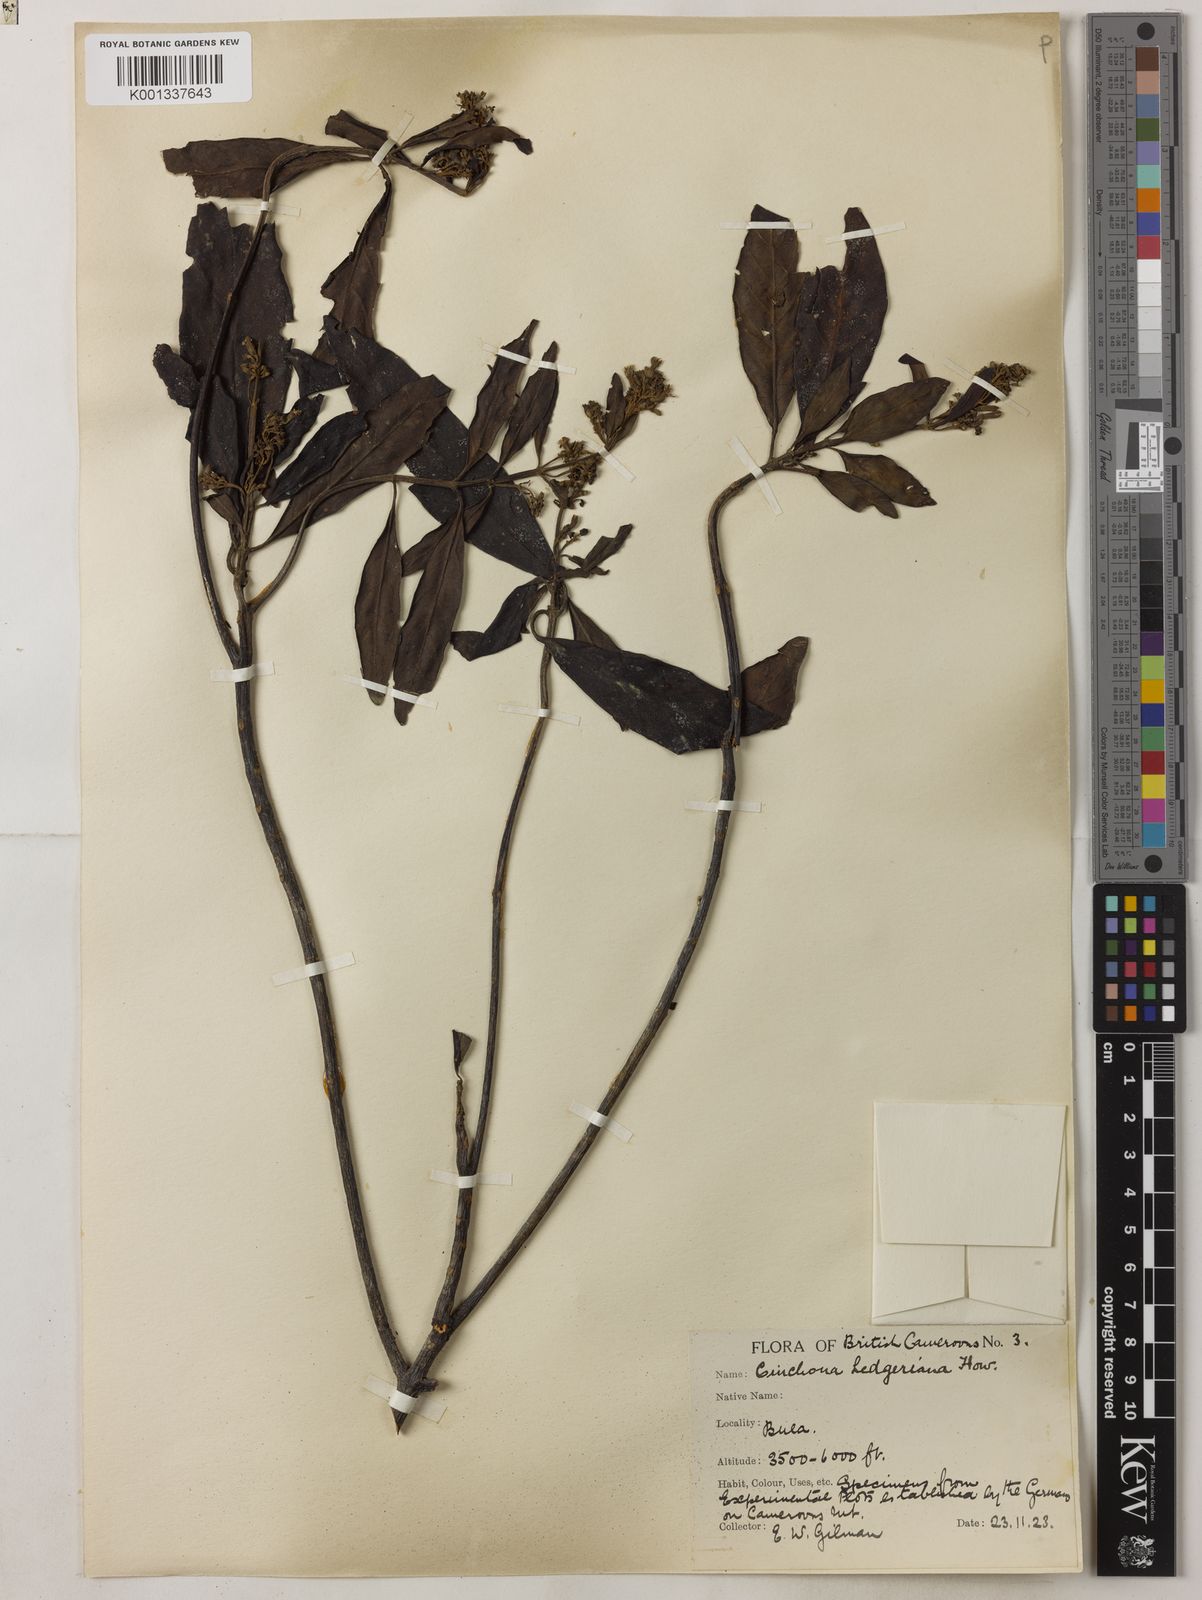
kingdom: Plantae
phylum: Tracheophyta
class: Magnoliopsida
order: Gentianales
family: Rubiaceae
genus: Cinchona
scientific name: Cinchona calisaya
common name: Ledgerbark
